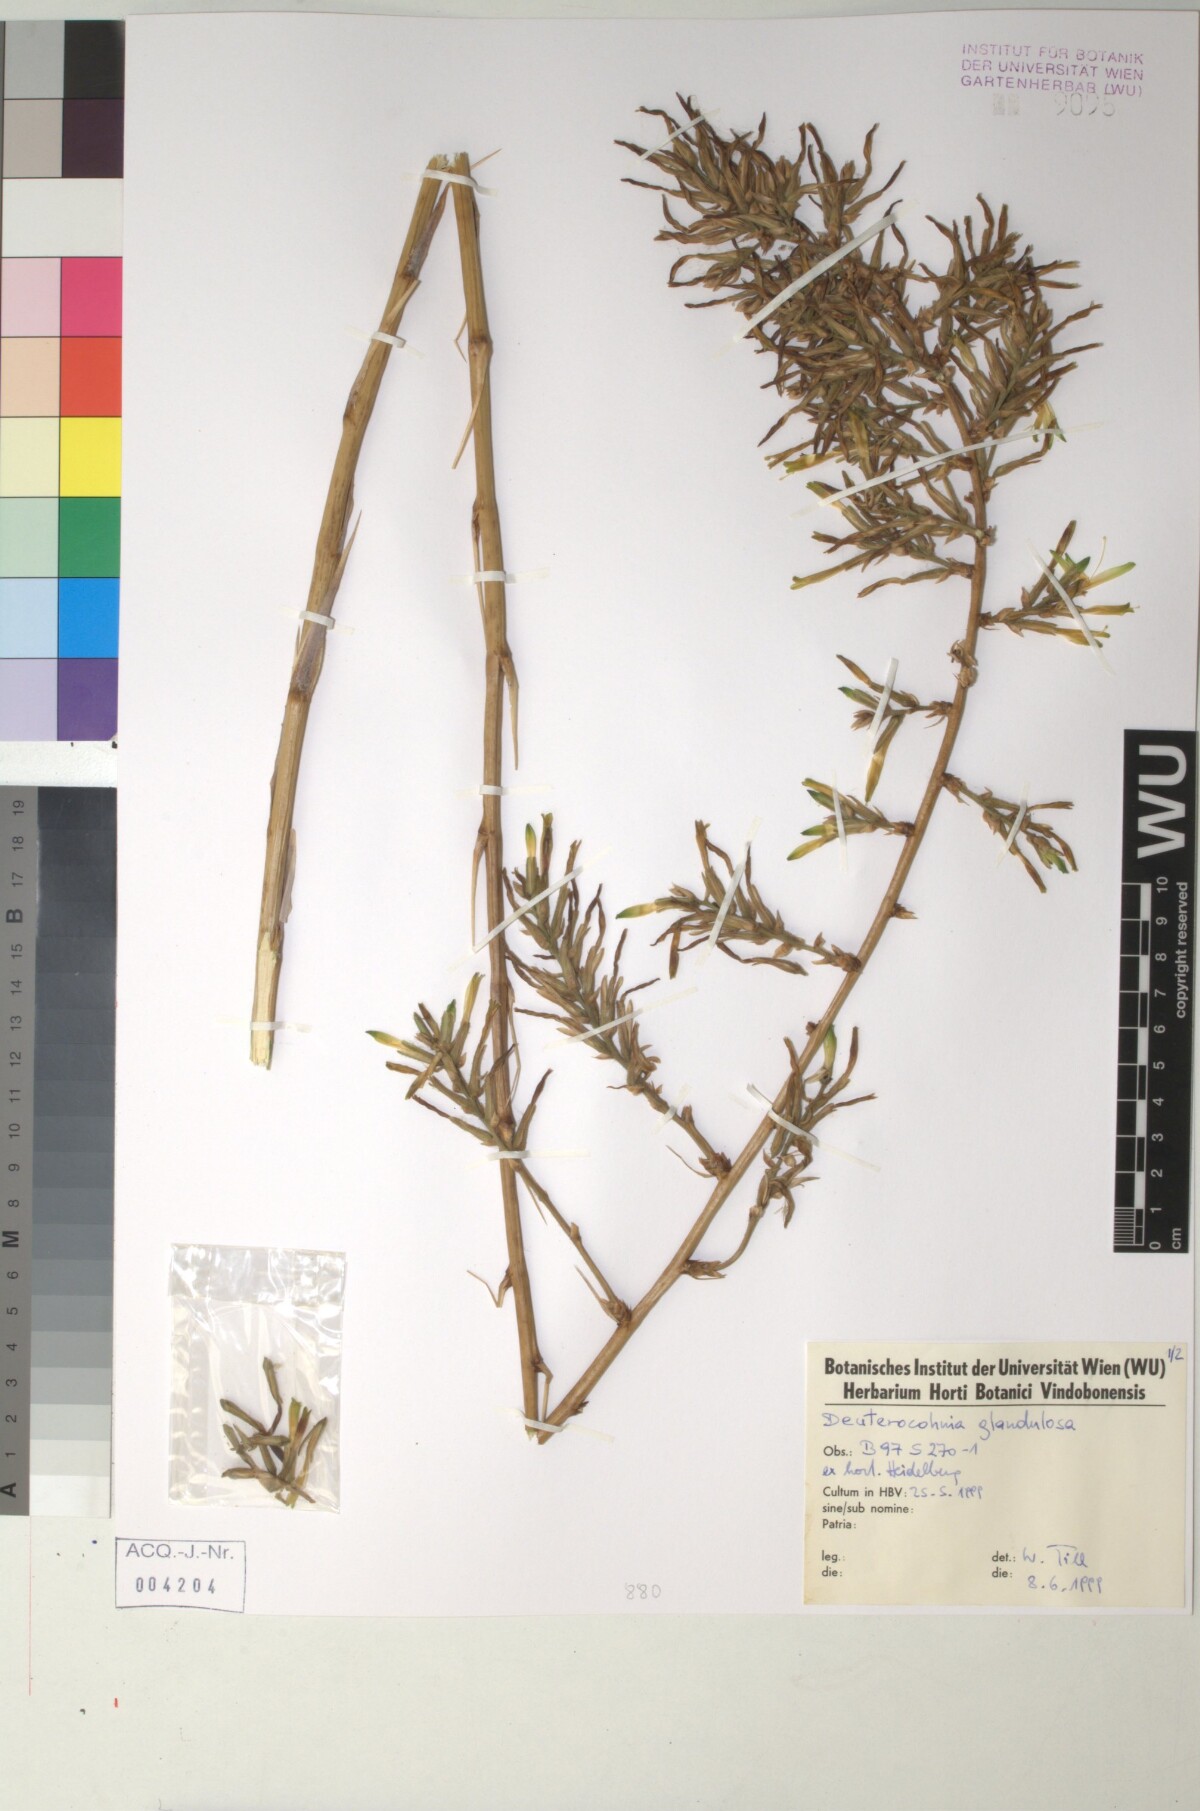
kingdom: Plantae
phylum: Tracheophyta
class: Liliopsida
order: Poales
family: Bromeliaceae
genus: Deuterocohnia
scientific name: Deuterocohnia glandulosa
